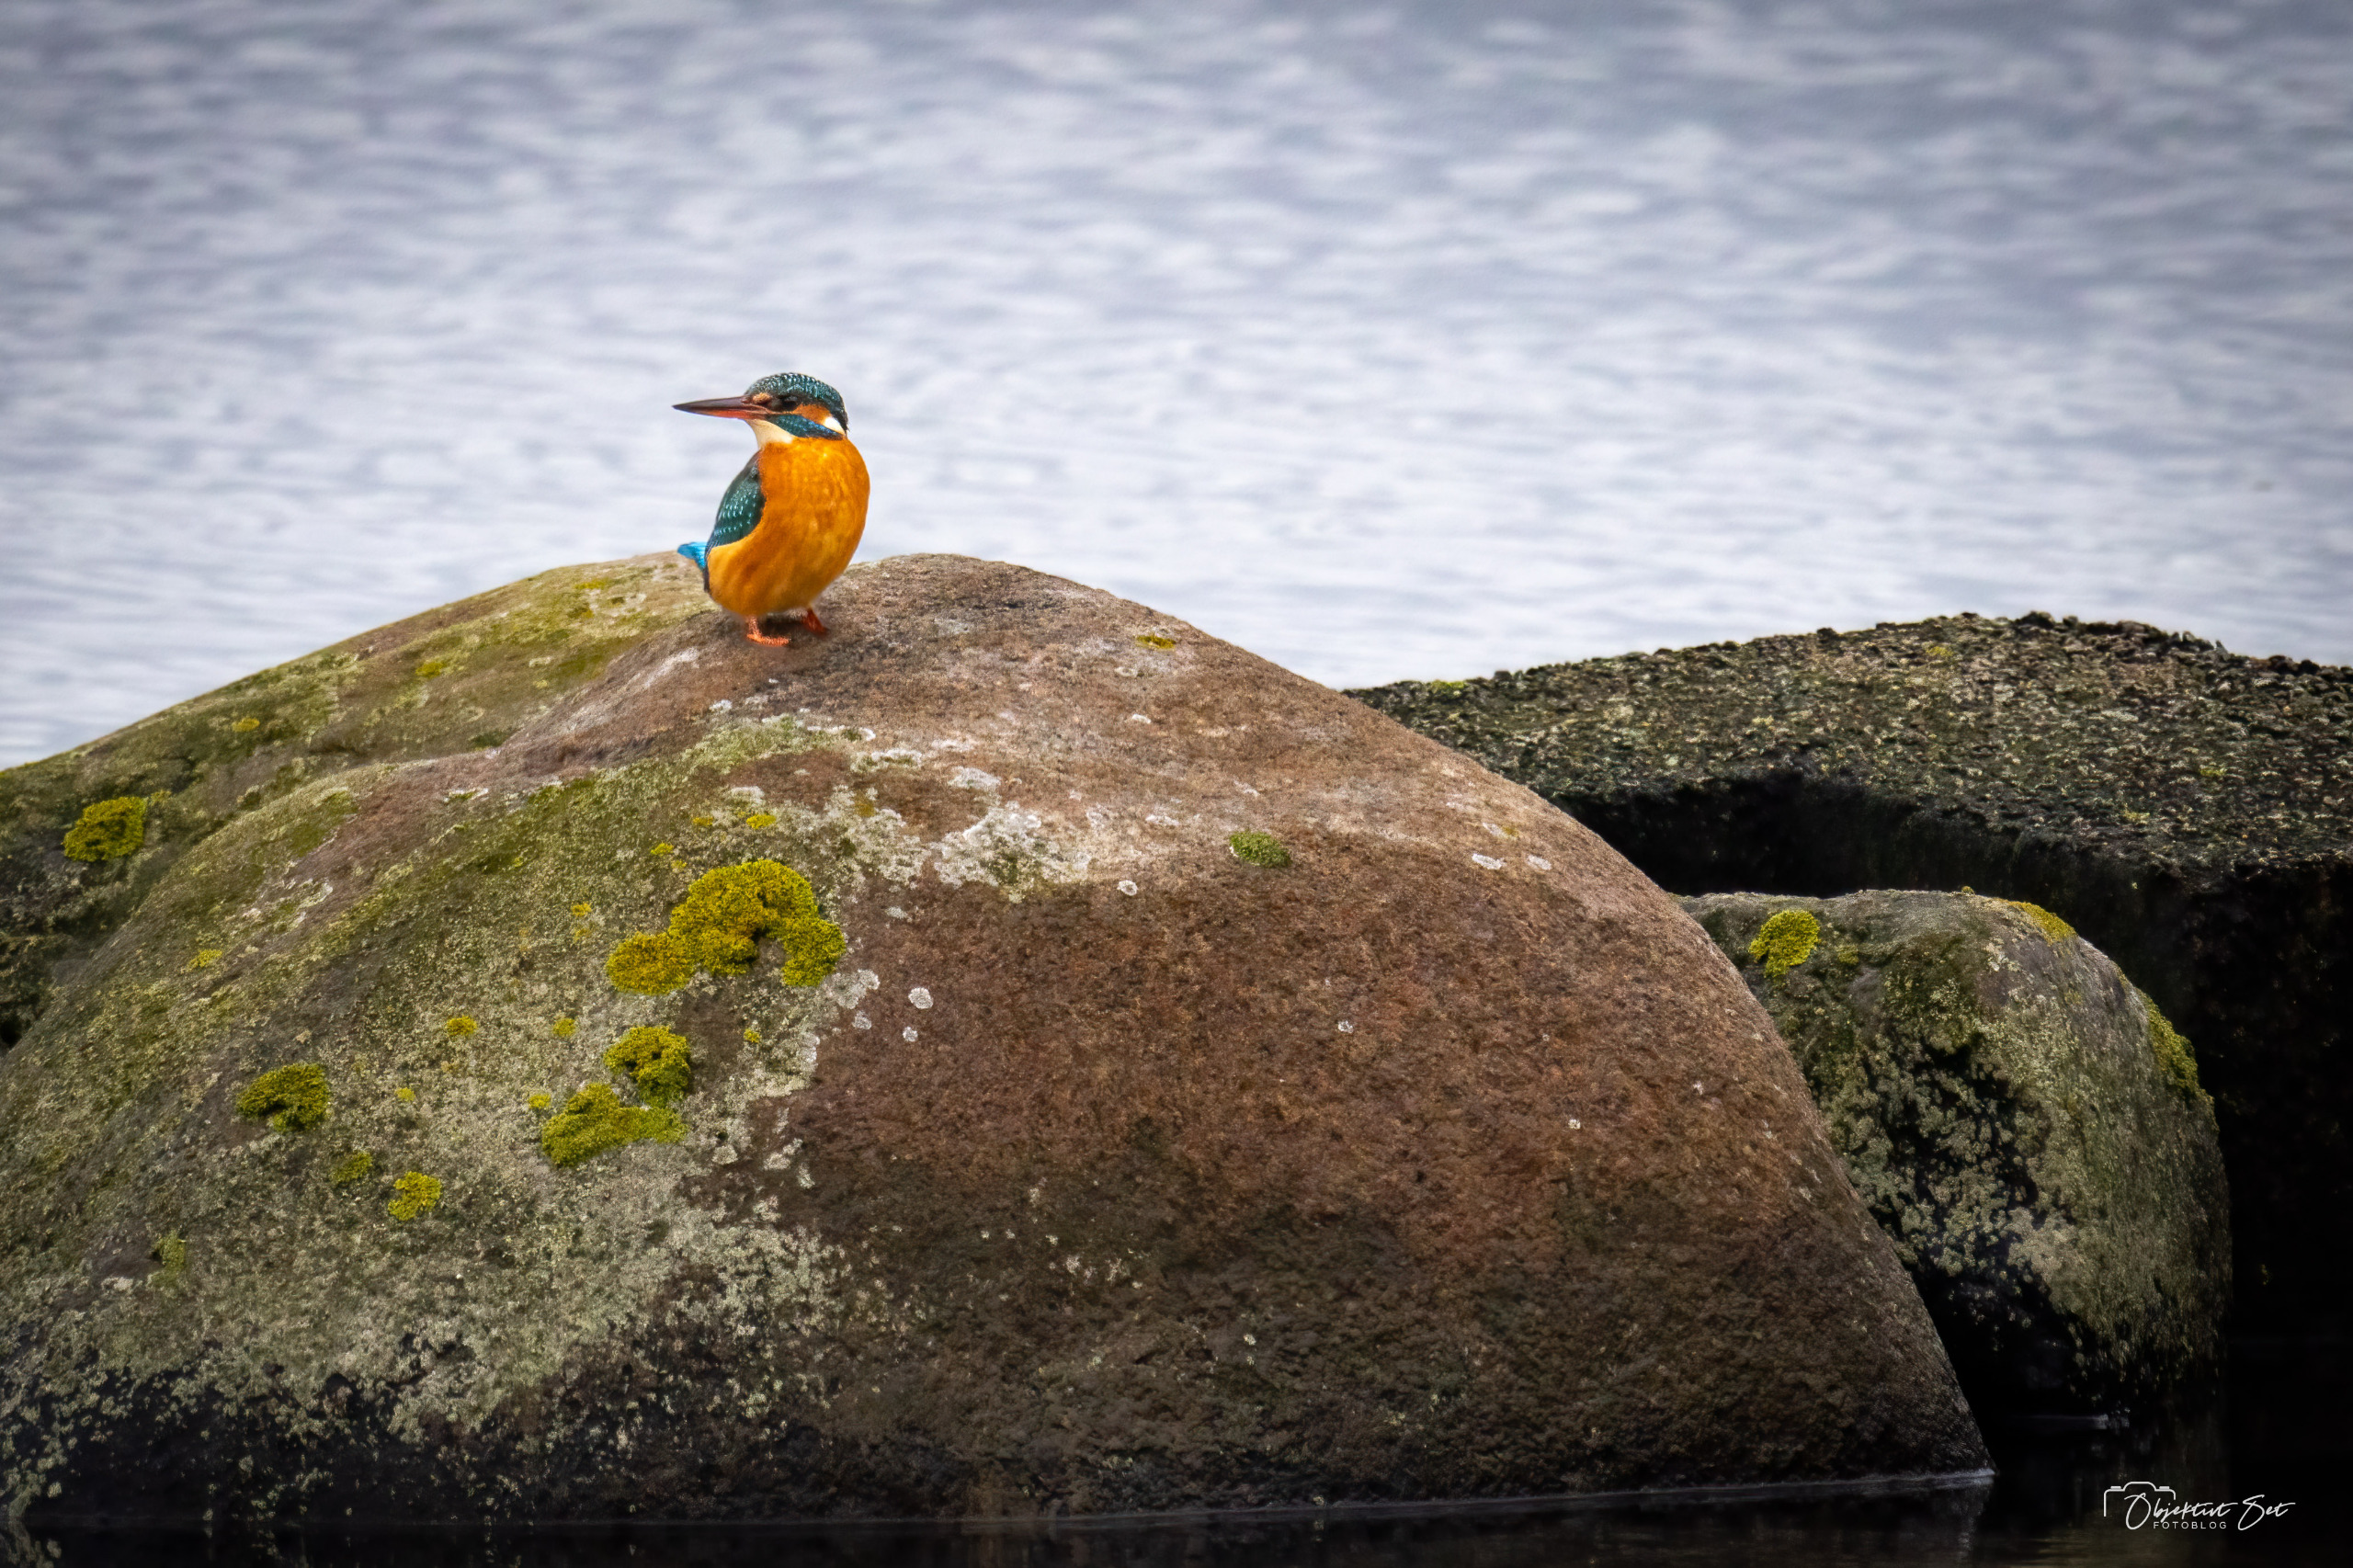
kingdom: Animalia
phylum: Chordata
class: Aves
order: Coraciiformes
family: Alcedinidae
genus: Alcedo
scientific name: Alcedo atthis
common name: Isfugl
